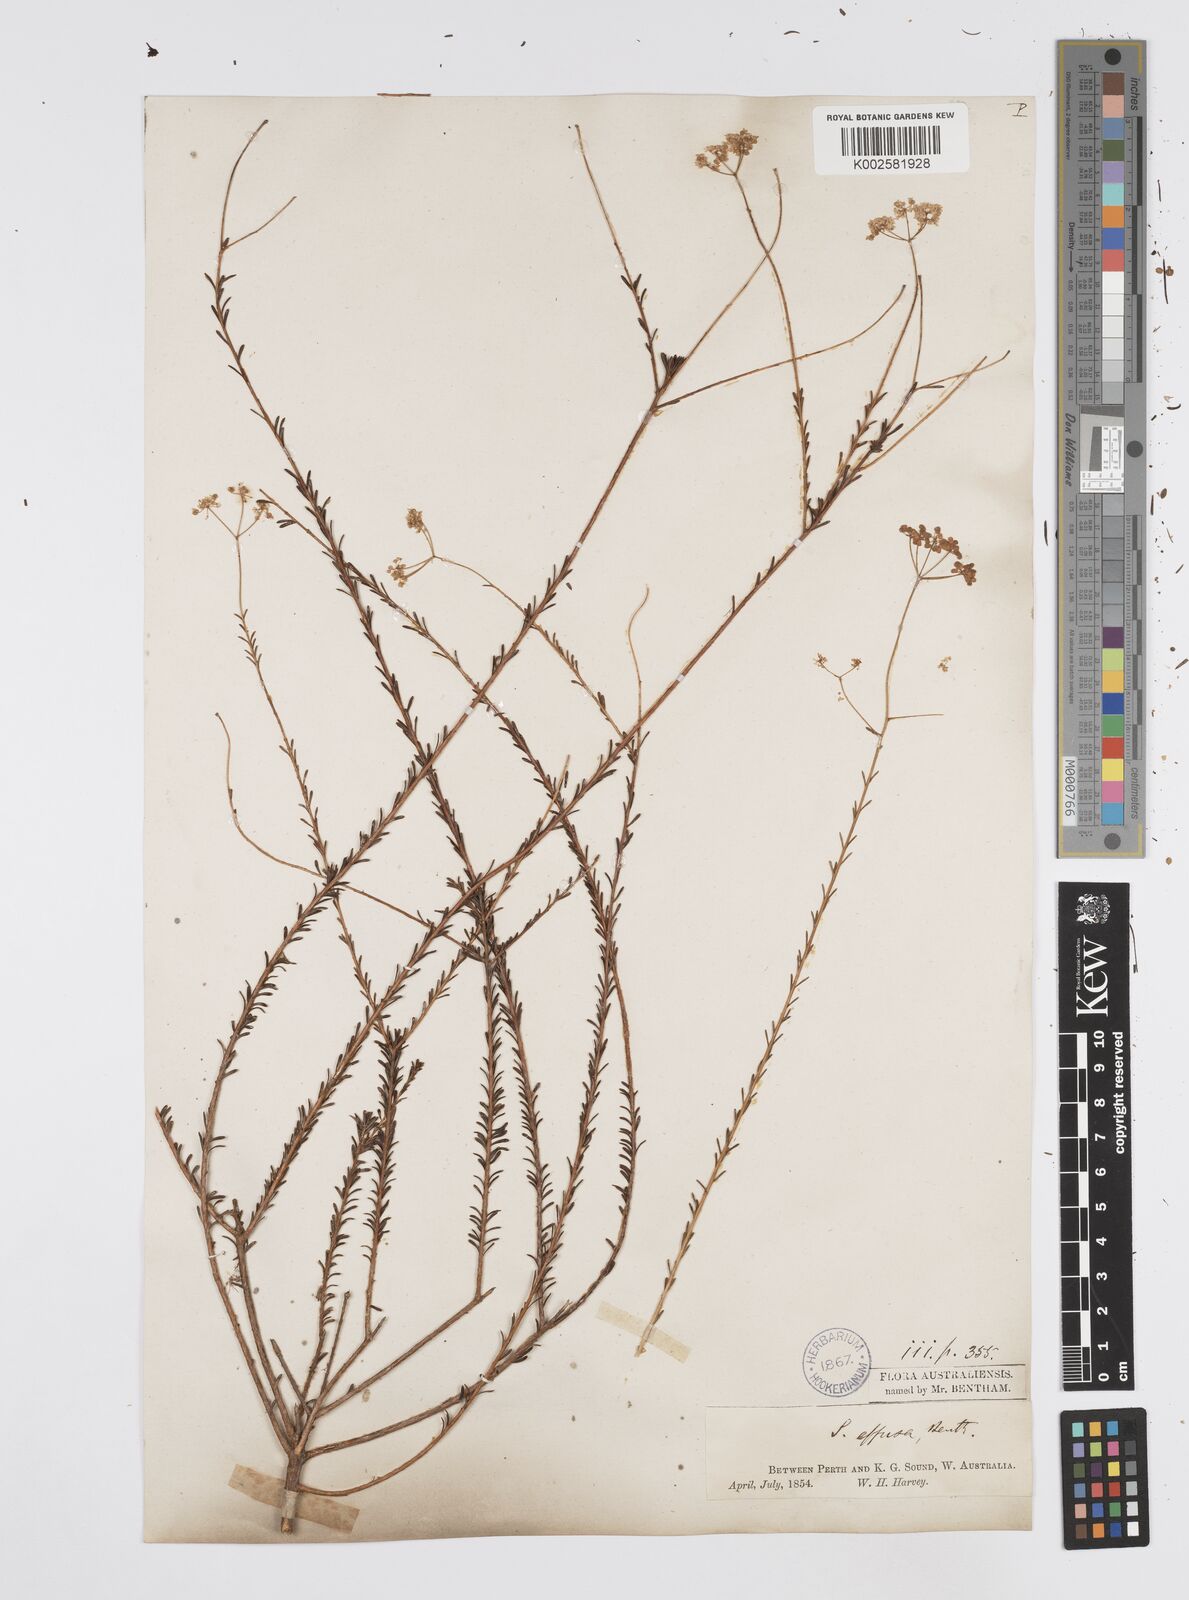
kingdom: Plantae
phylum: Tracheophyta
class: Magnoliopsida
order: Apiales
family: Apiaceae
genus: Platysace
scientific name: Platysace effusa
